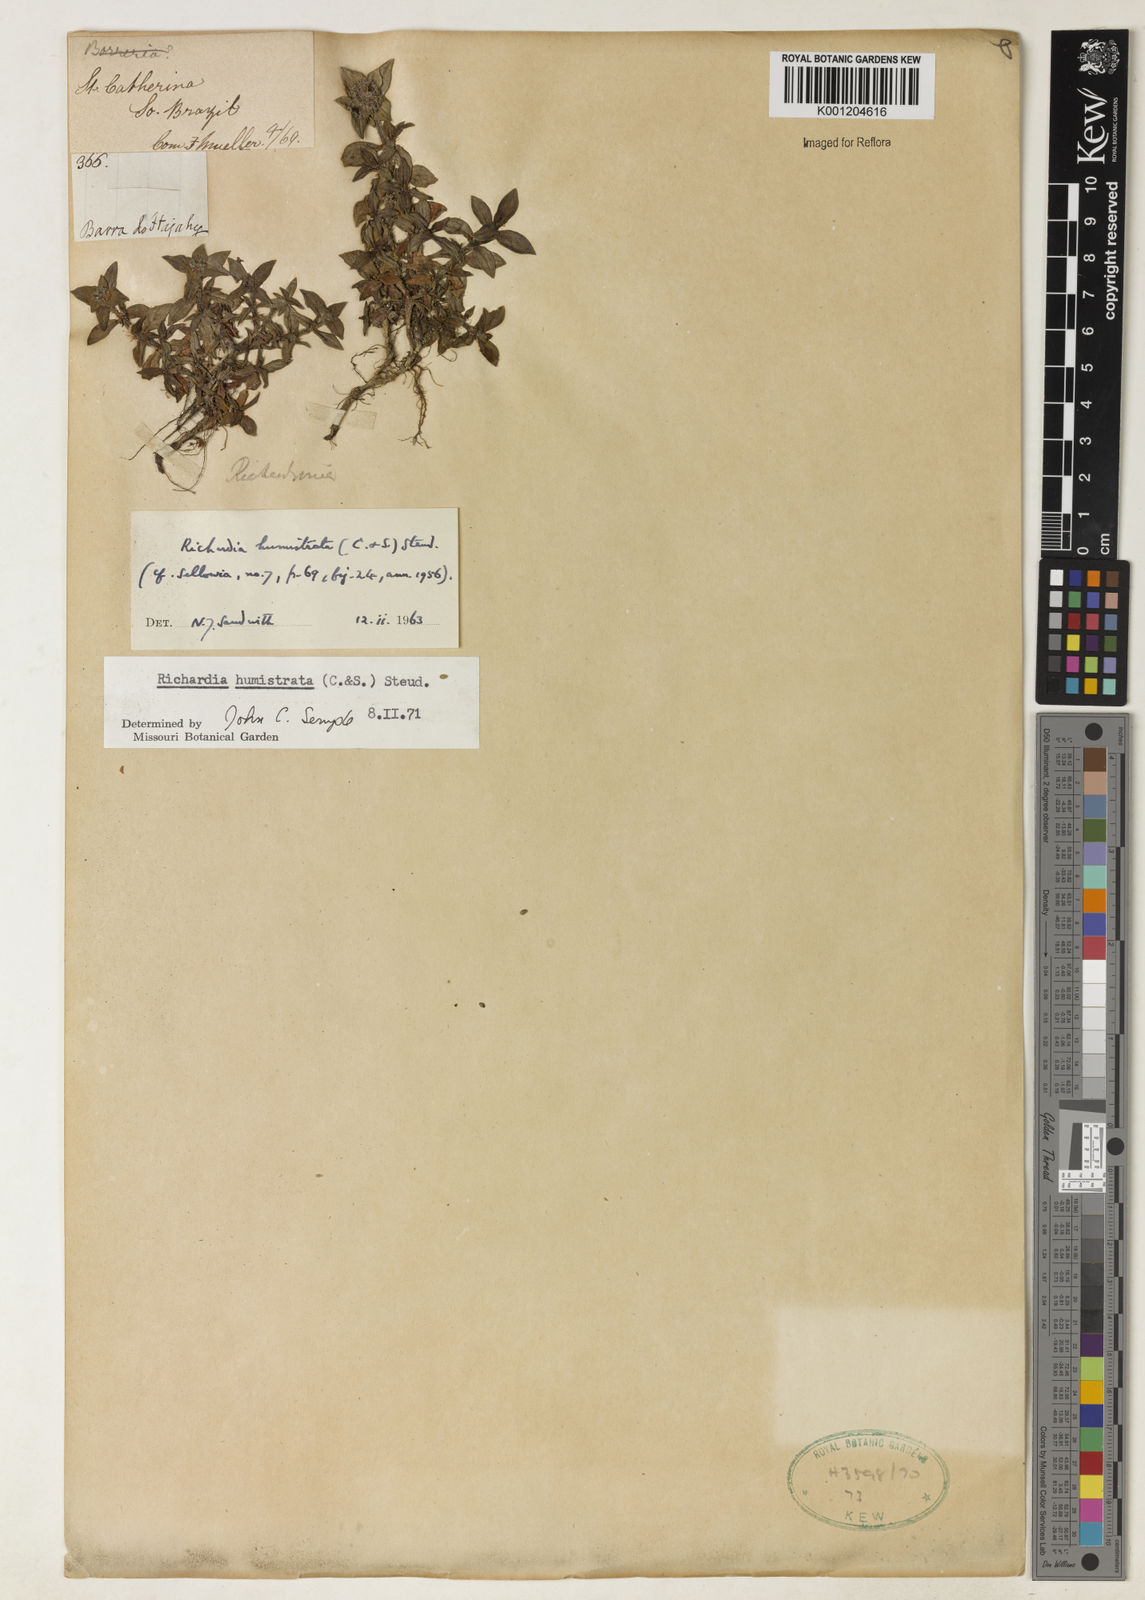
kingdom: Plantae
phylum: Tracheophyta
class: Magnoliopsida
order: Gentianales
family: Rubiaceae
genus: Richardia
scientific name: Richardia humistrata
